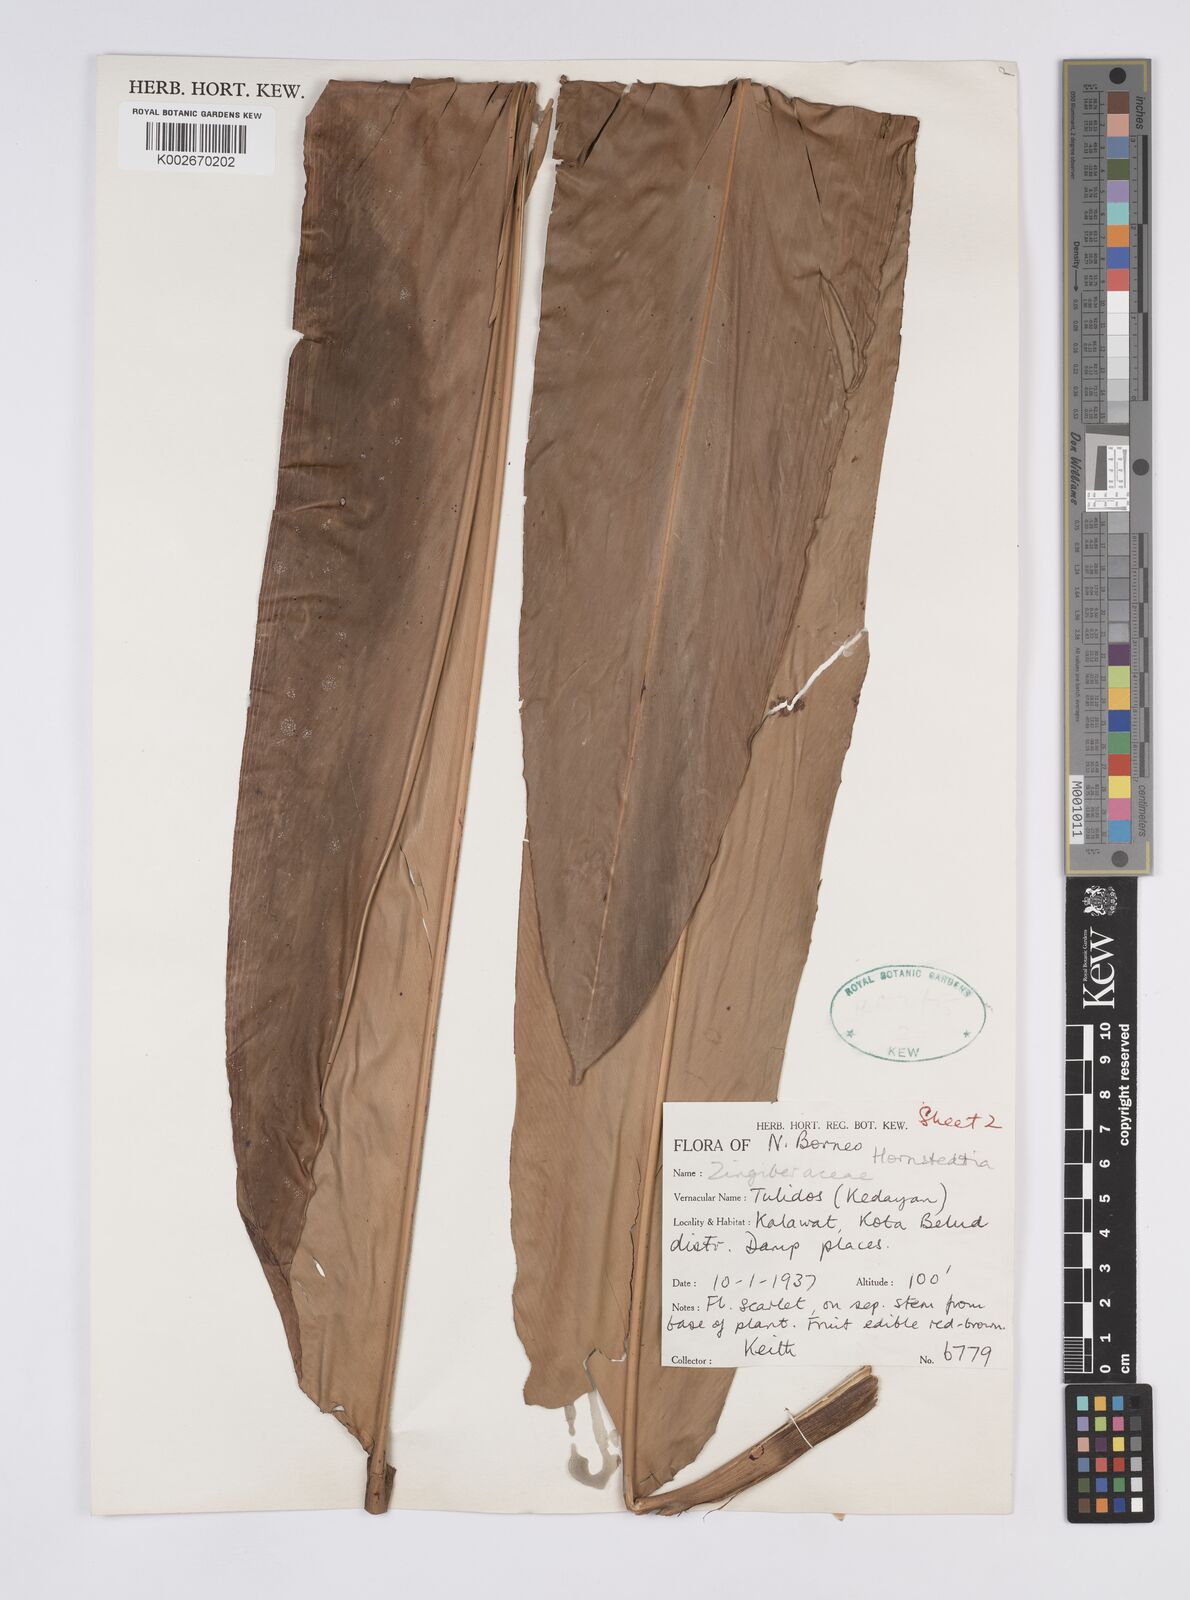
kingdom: Plantae
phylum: Tracheophyta
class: Liliopsida
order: Zingiberales
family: Zingiberaceae
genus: Hornstedtia
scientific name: Hornstedtia havilandii
